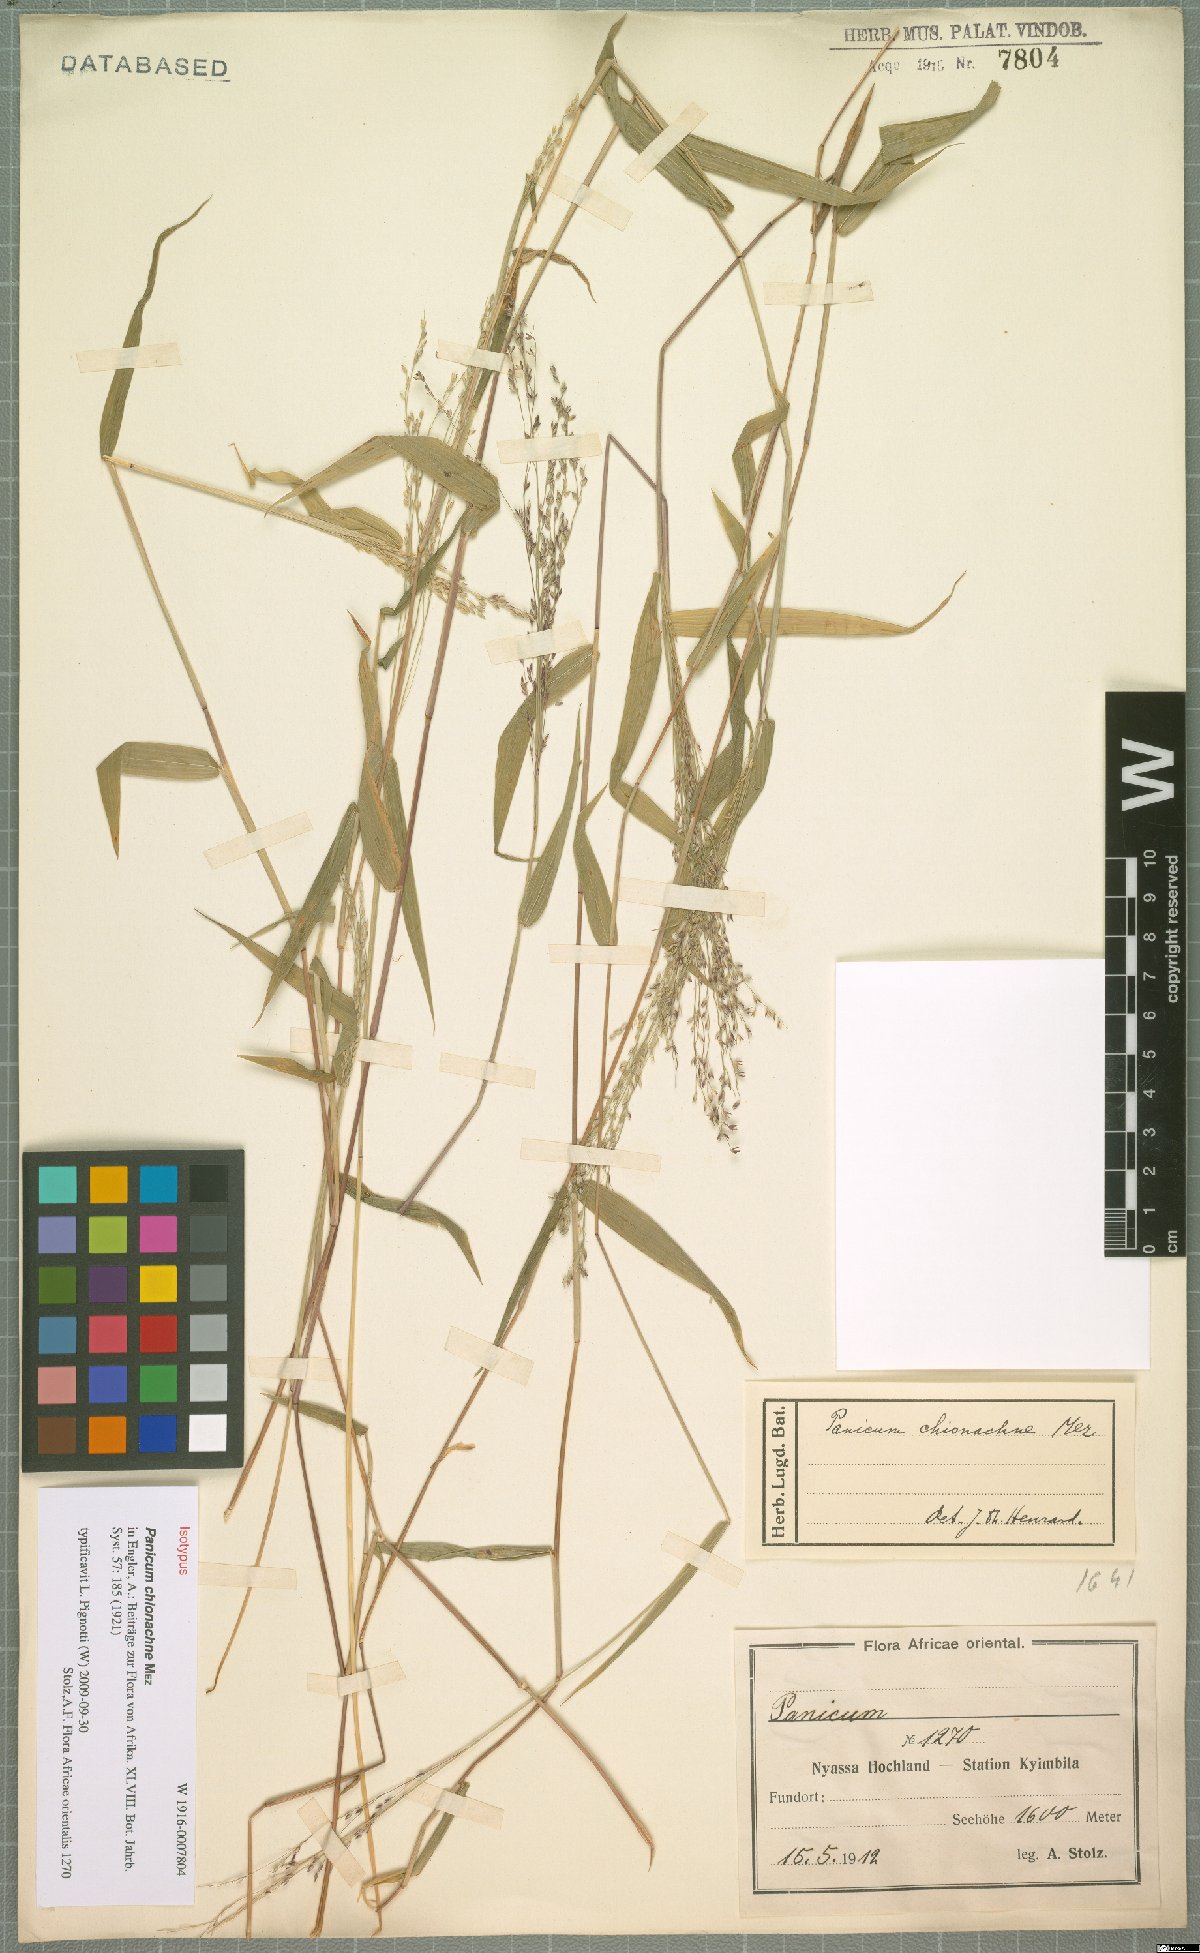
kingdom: Plantae
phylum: Tracheophyta
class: Liliopsida
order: Poales
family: Poaceae
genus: Panicum
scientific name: Panicum chionachne
